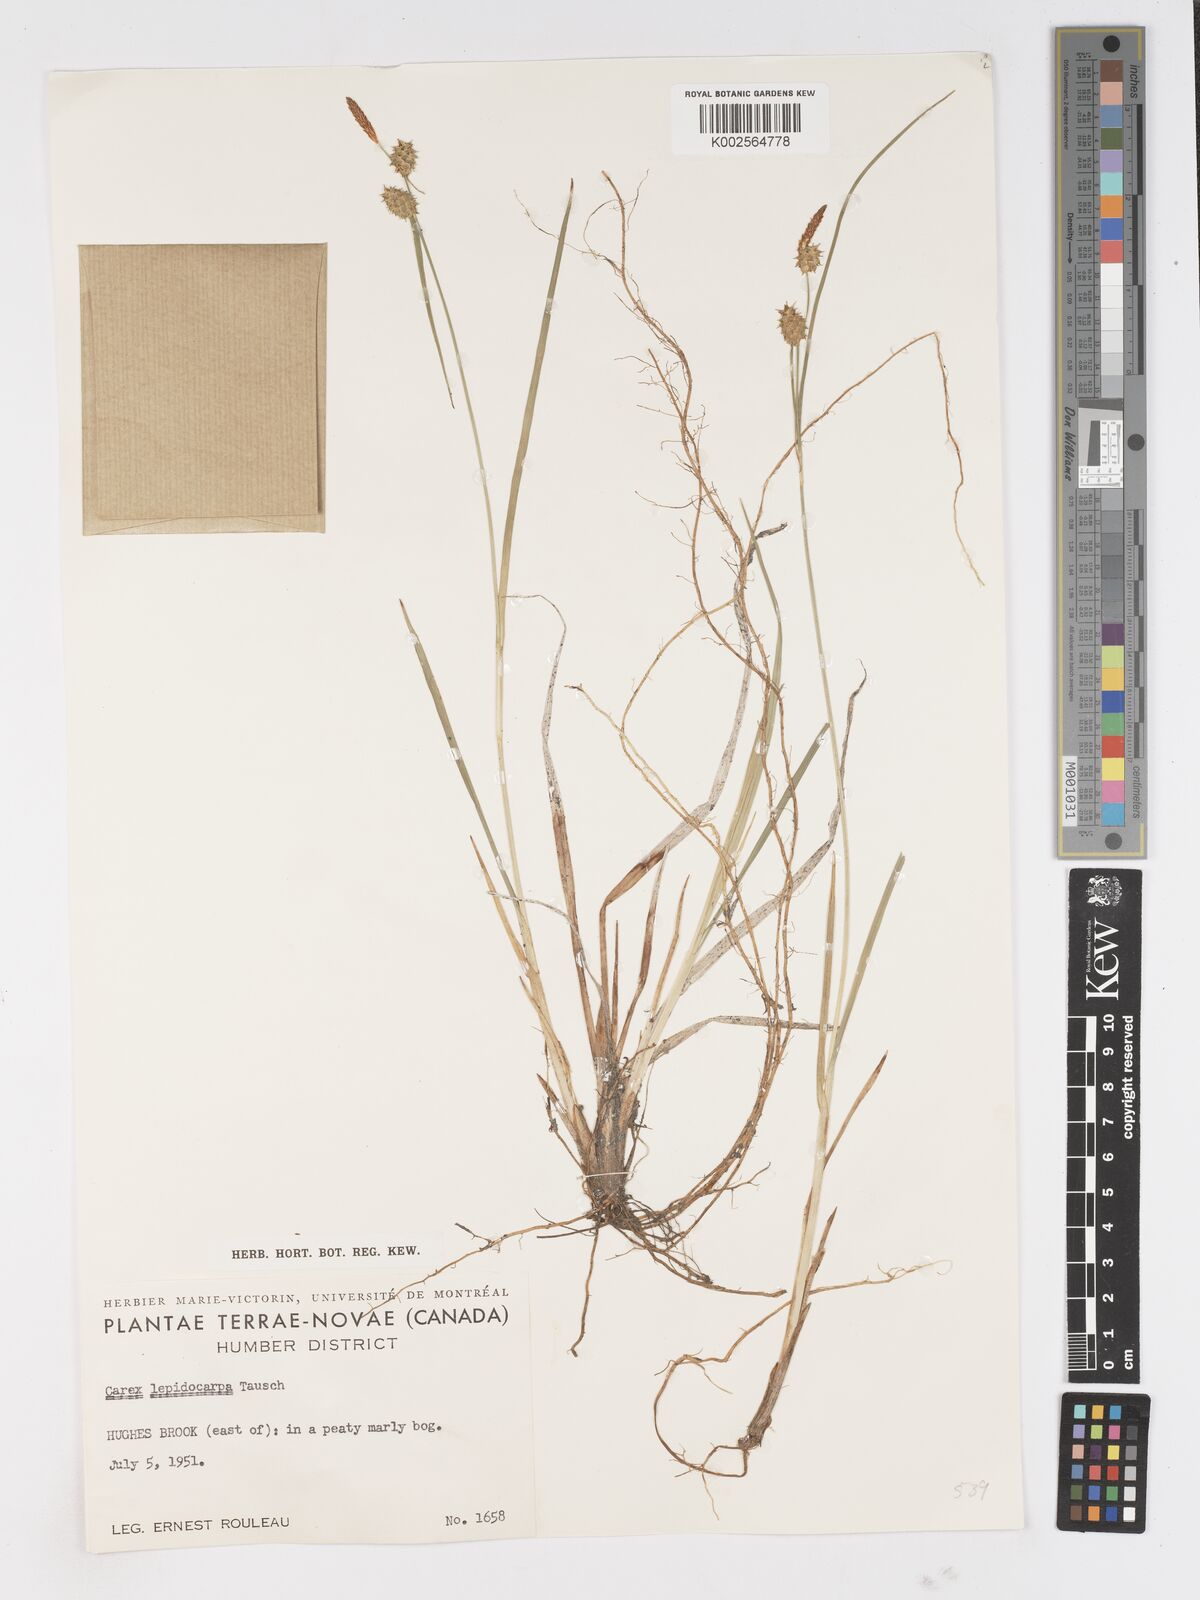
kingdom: Plantae
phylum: Tracheophyta
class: Liliopsida
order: Poales
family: Cyperaceae
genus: Carex
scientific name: Carex
